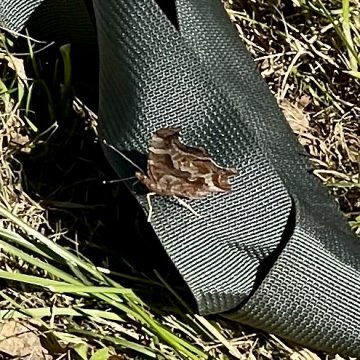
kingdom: Animalia
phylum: Arthropoda
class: Insecta
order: Lepidoptera
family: Nymphalidae
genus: Polygonia
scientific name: Polygonia comma
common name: Eastern Comma
